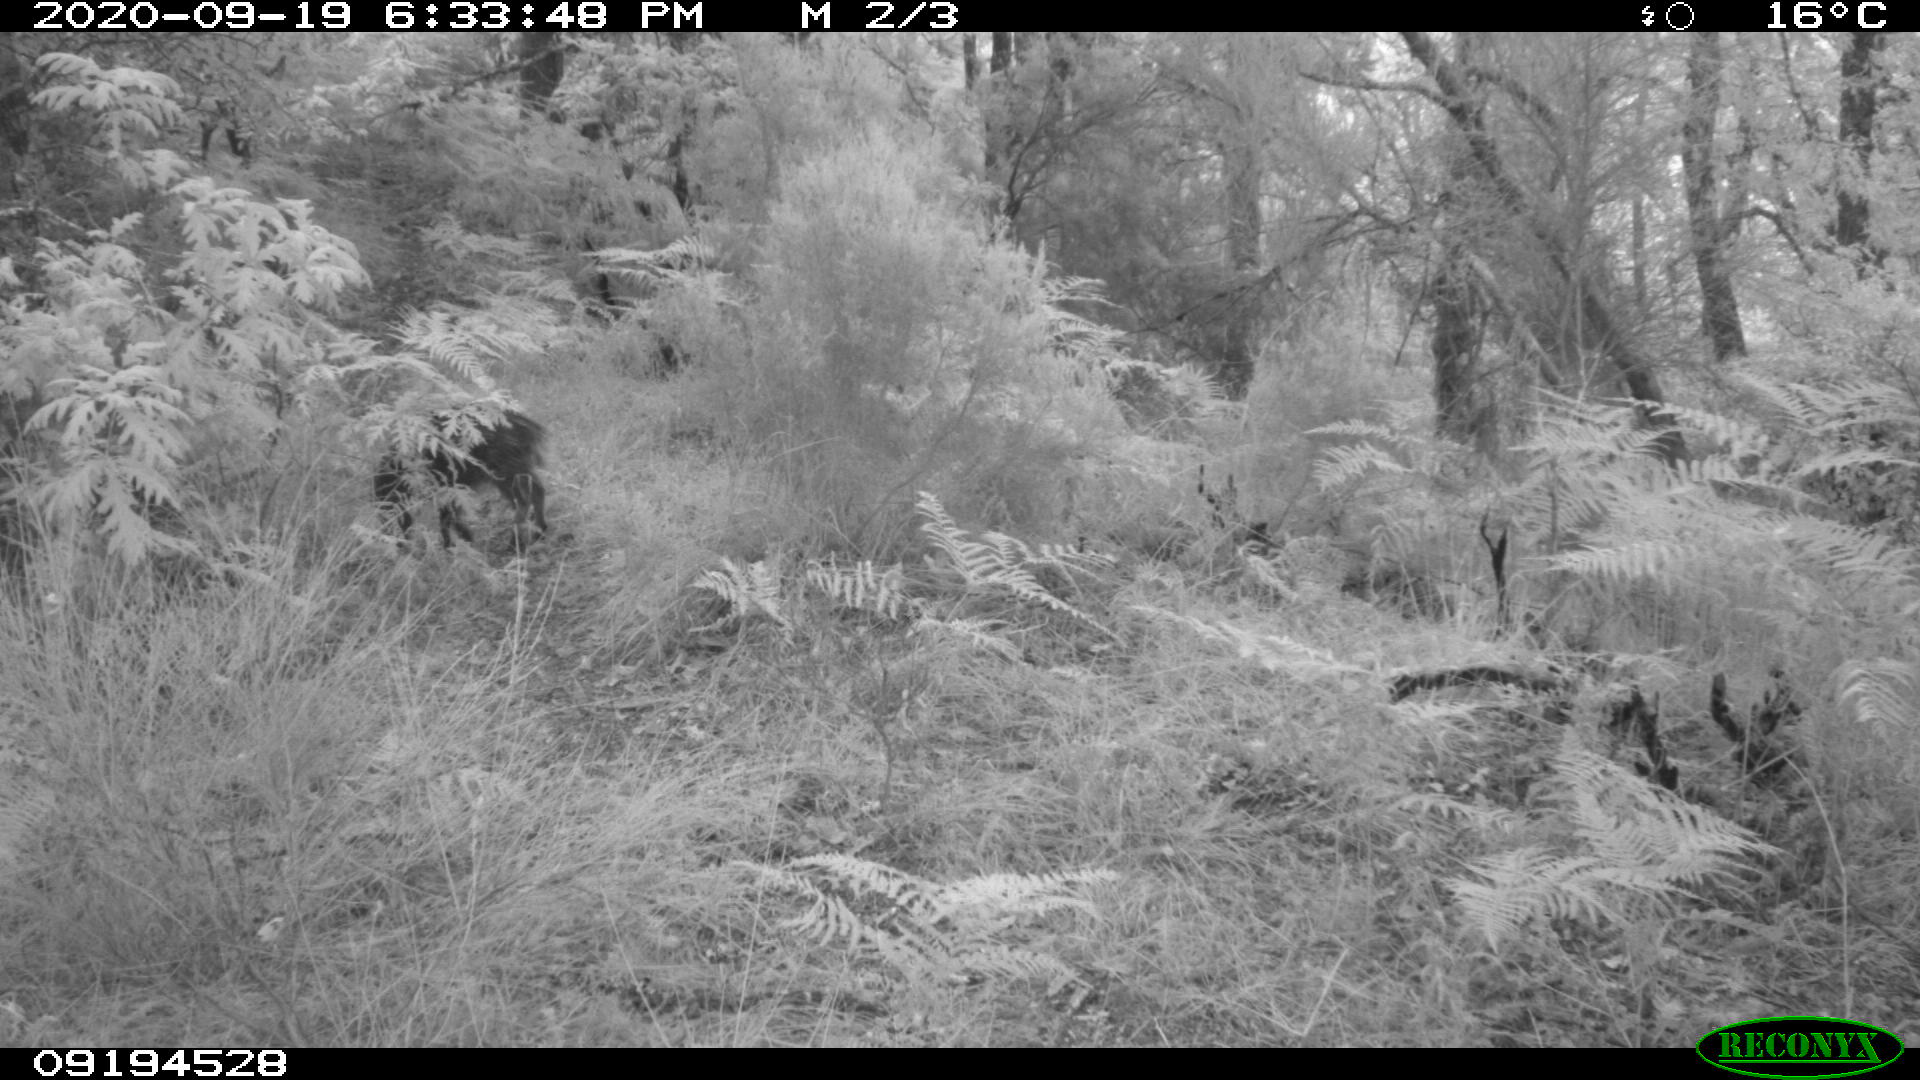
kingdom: Animalia
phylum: Chordata
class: Mammalia
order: Artiodactyla
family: Suidae
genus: Sus
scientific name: Sus scrofa
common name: Wild boar
